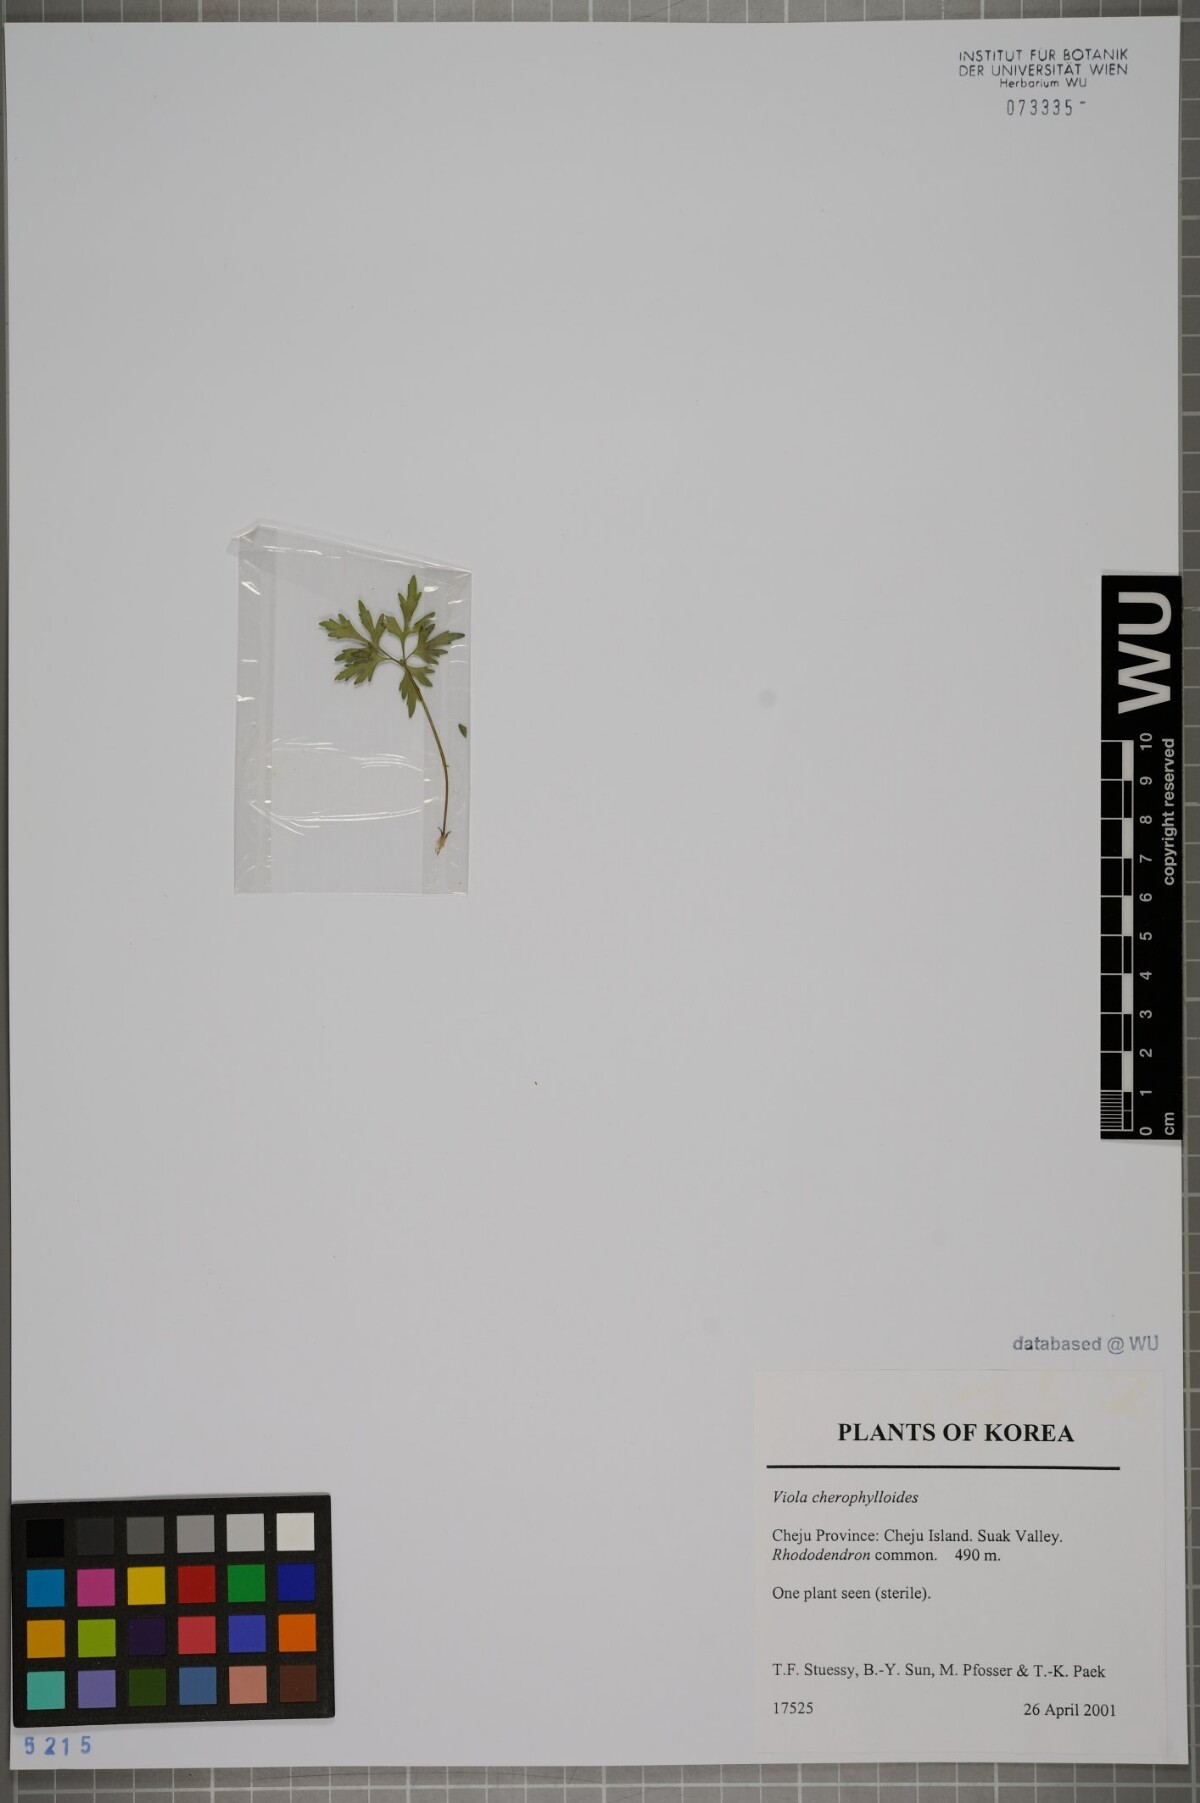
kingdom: Plantae
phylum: Tracheophyta
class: Magnoliopsida
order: Malpighiales
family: Violaceae
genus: Viola
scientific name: Viola albida
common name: Korean violet
